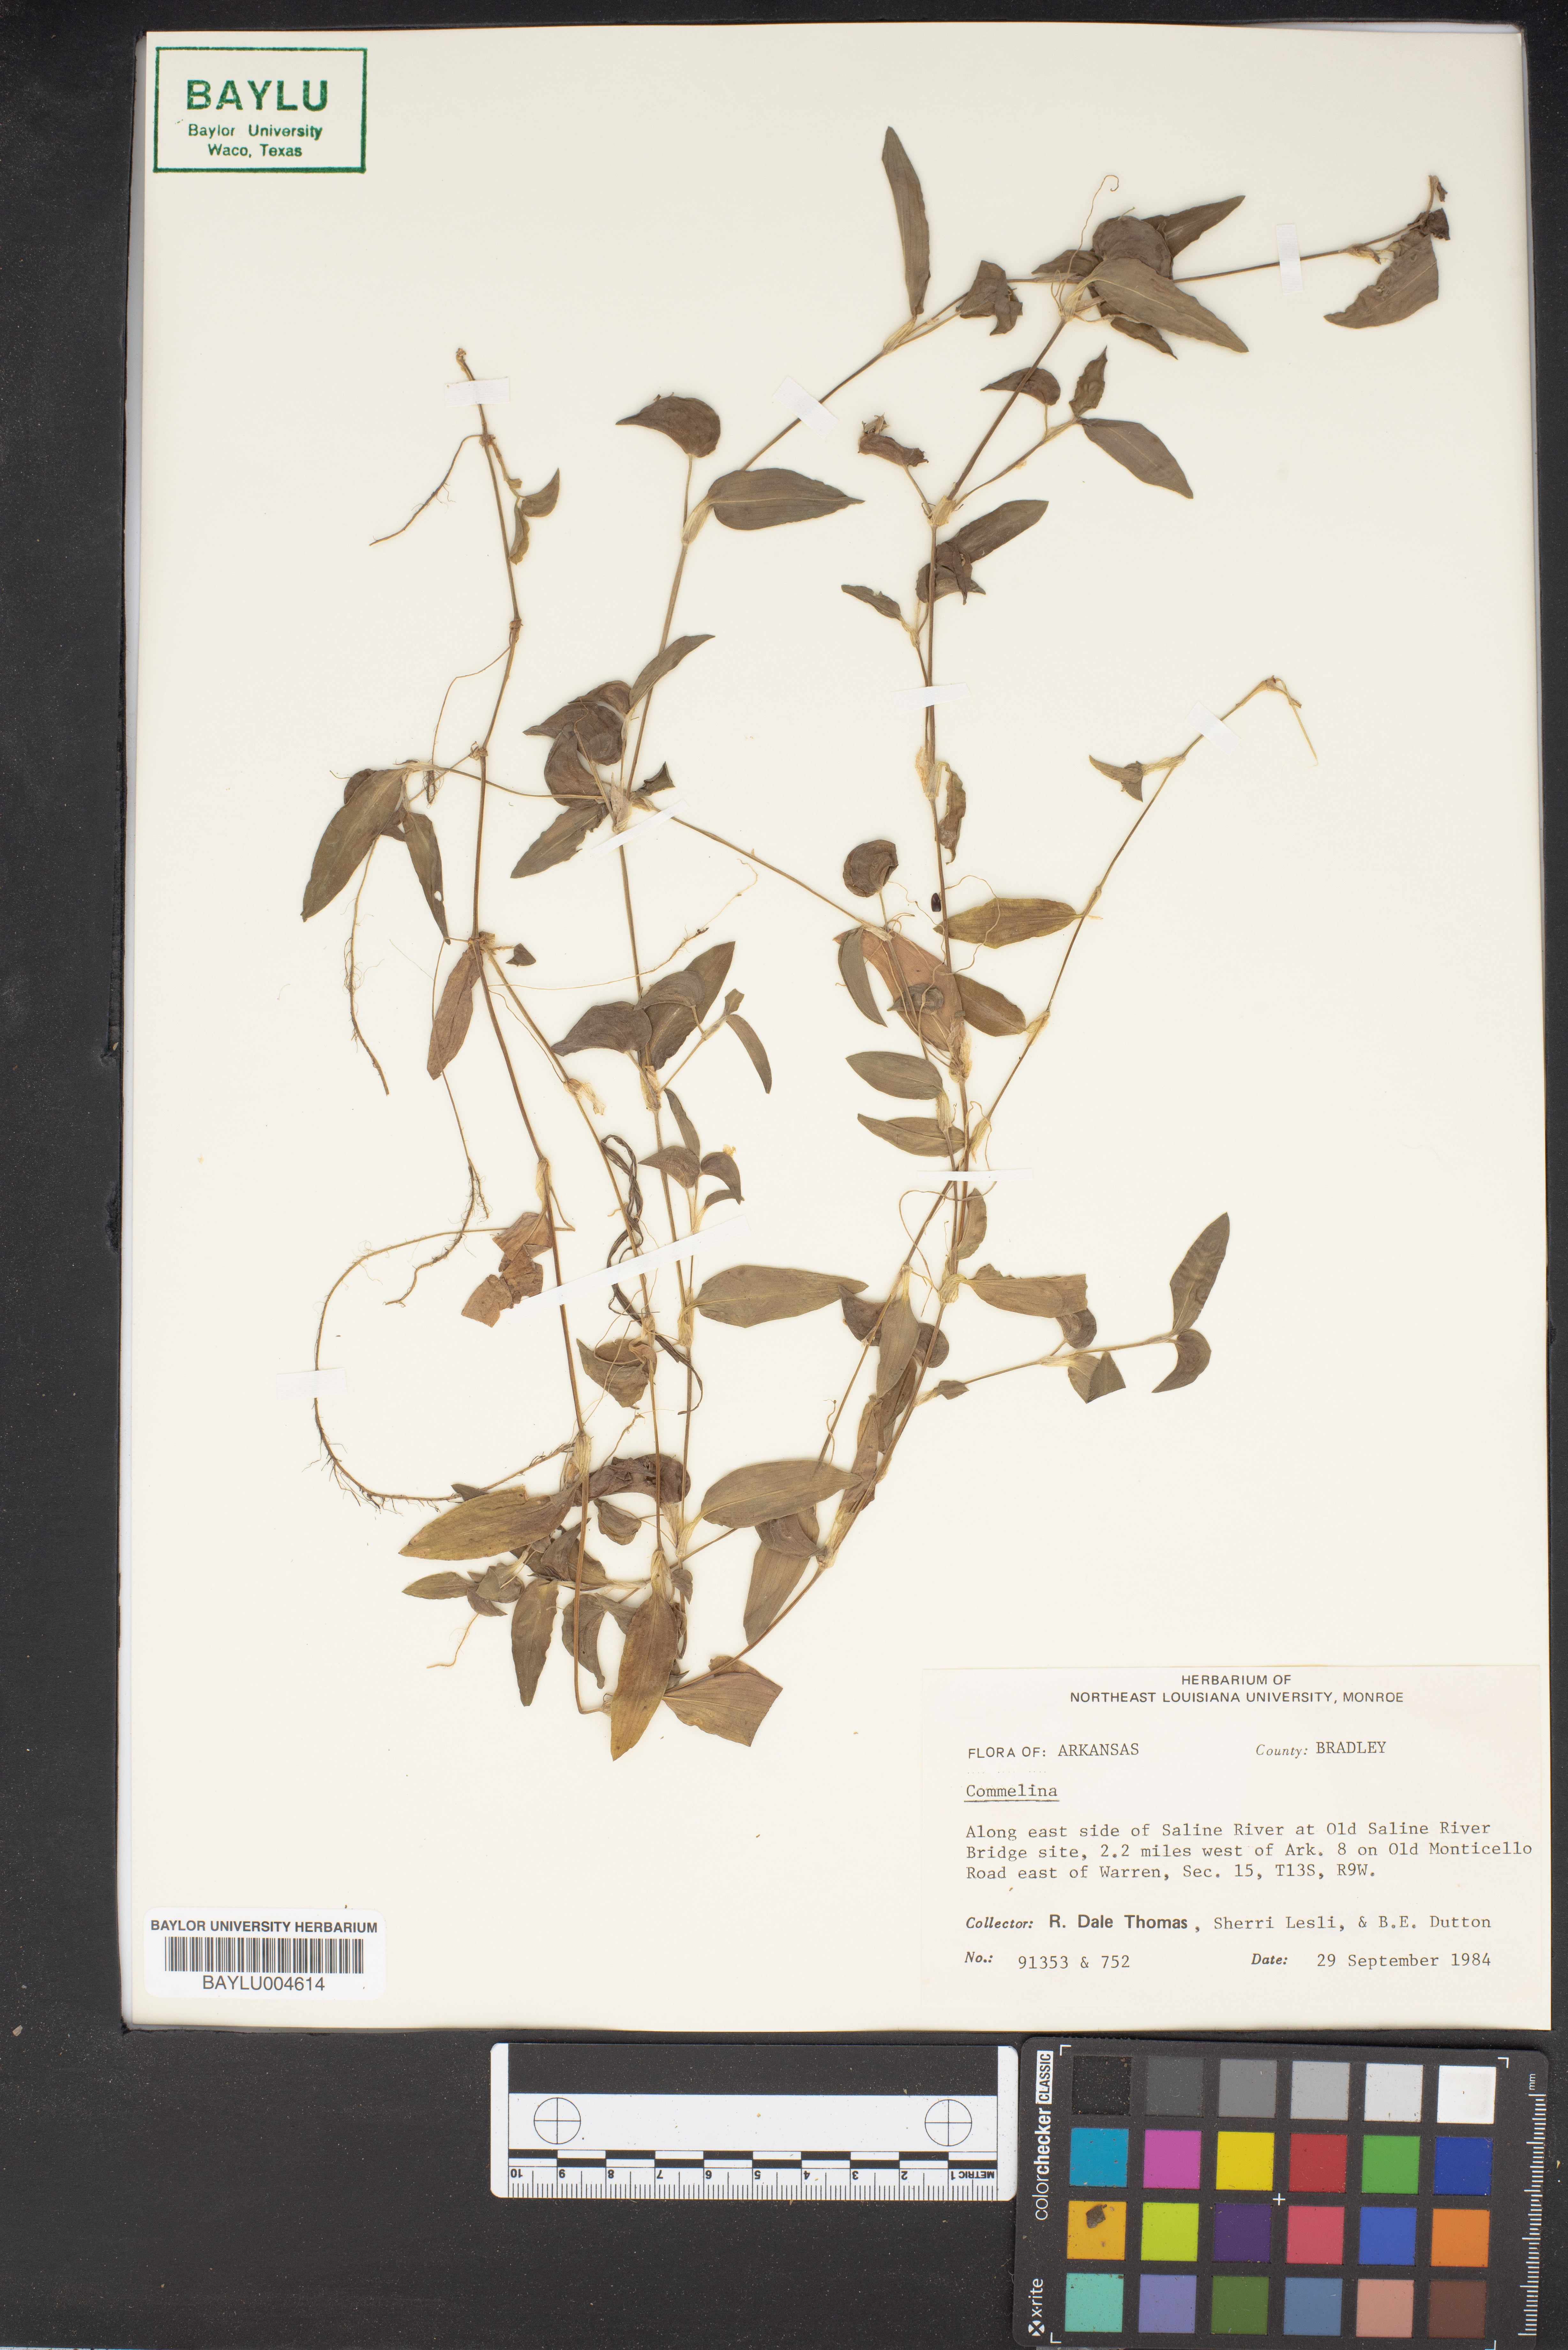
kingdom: Plantae
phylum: Tracheophyta
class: Liliopsida
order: Commelinales
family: Commelinaceae
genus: Commelina
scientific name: Commelina
